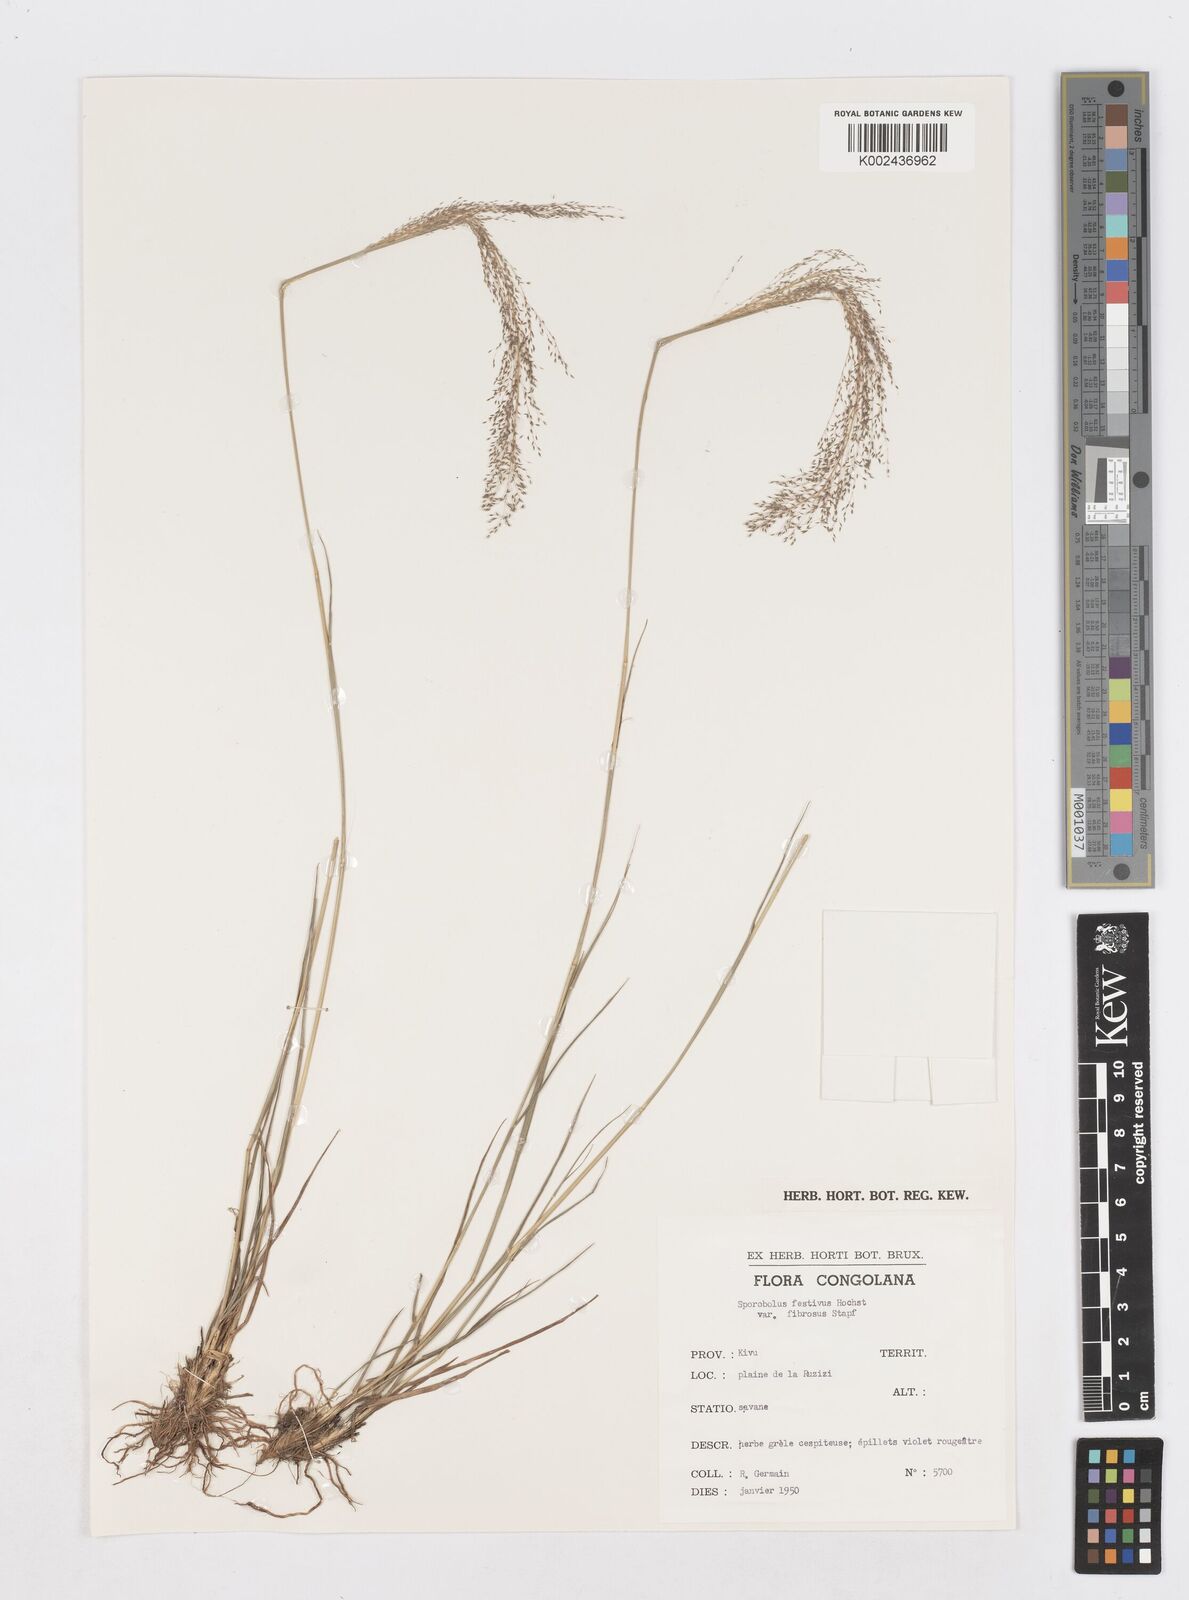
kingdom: Plantae
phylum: Tracheophyta
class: Liliopsida
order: Poales
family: Poaceae
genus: Sporobolus
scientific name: Sporobolus festivus
